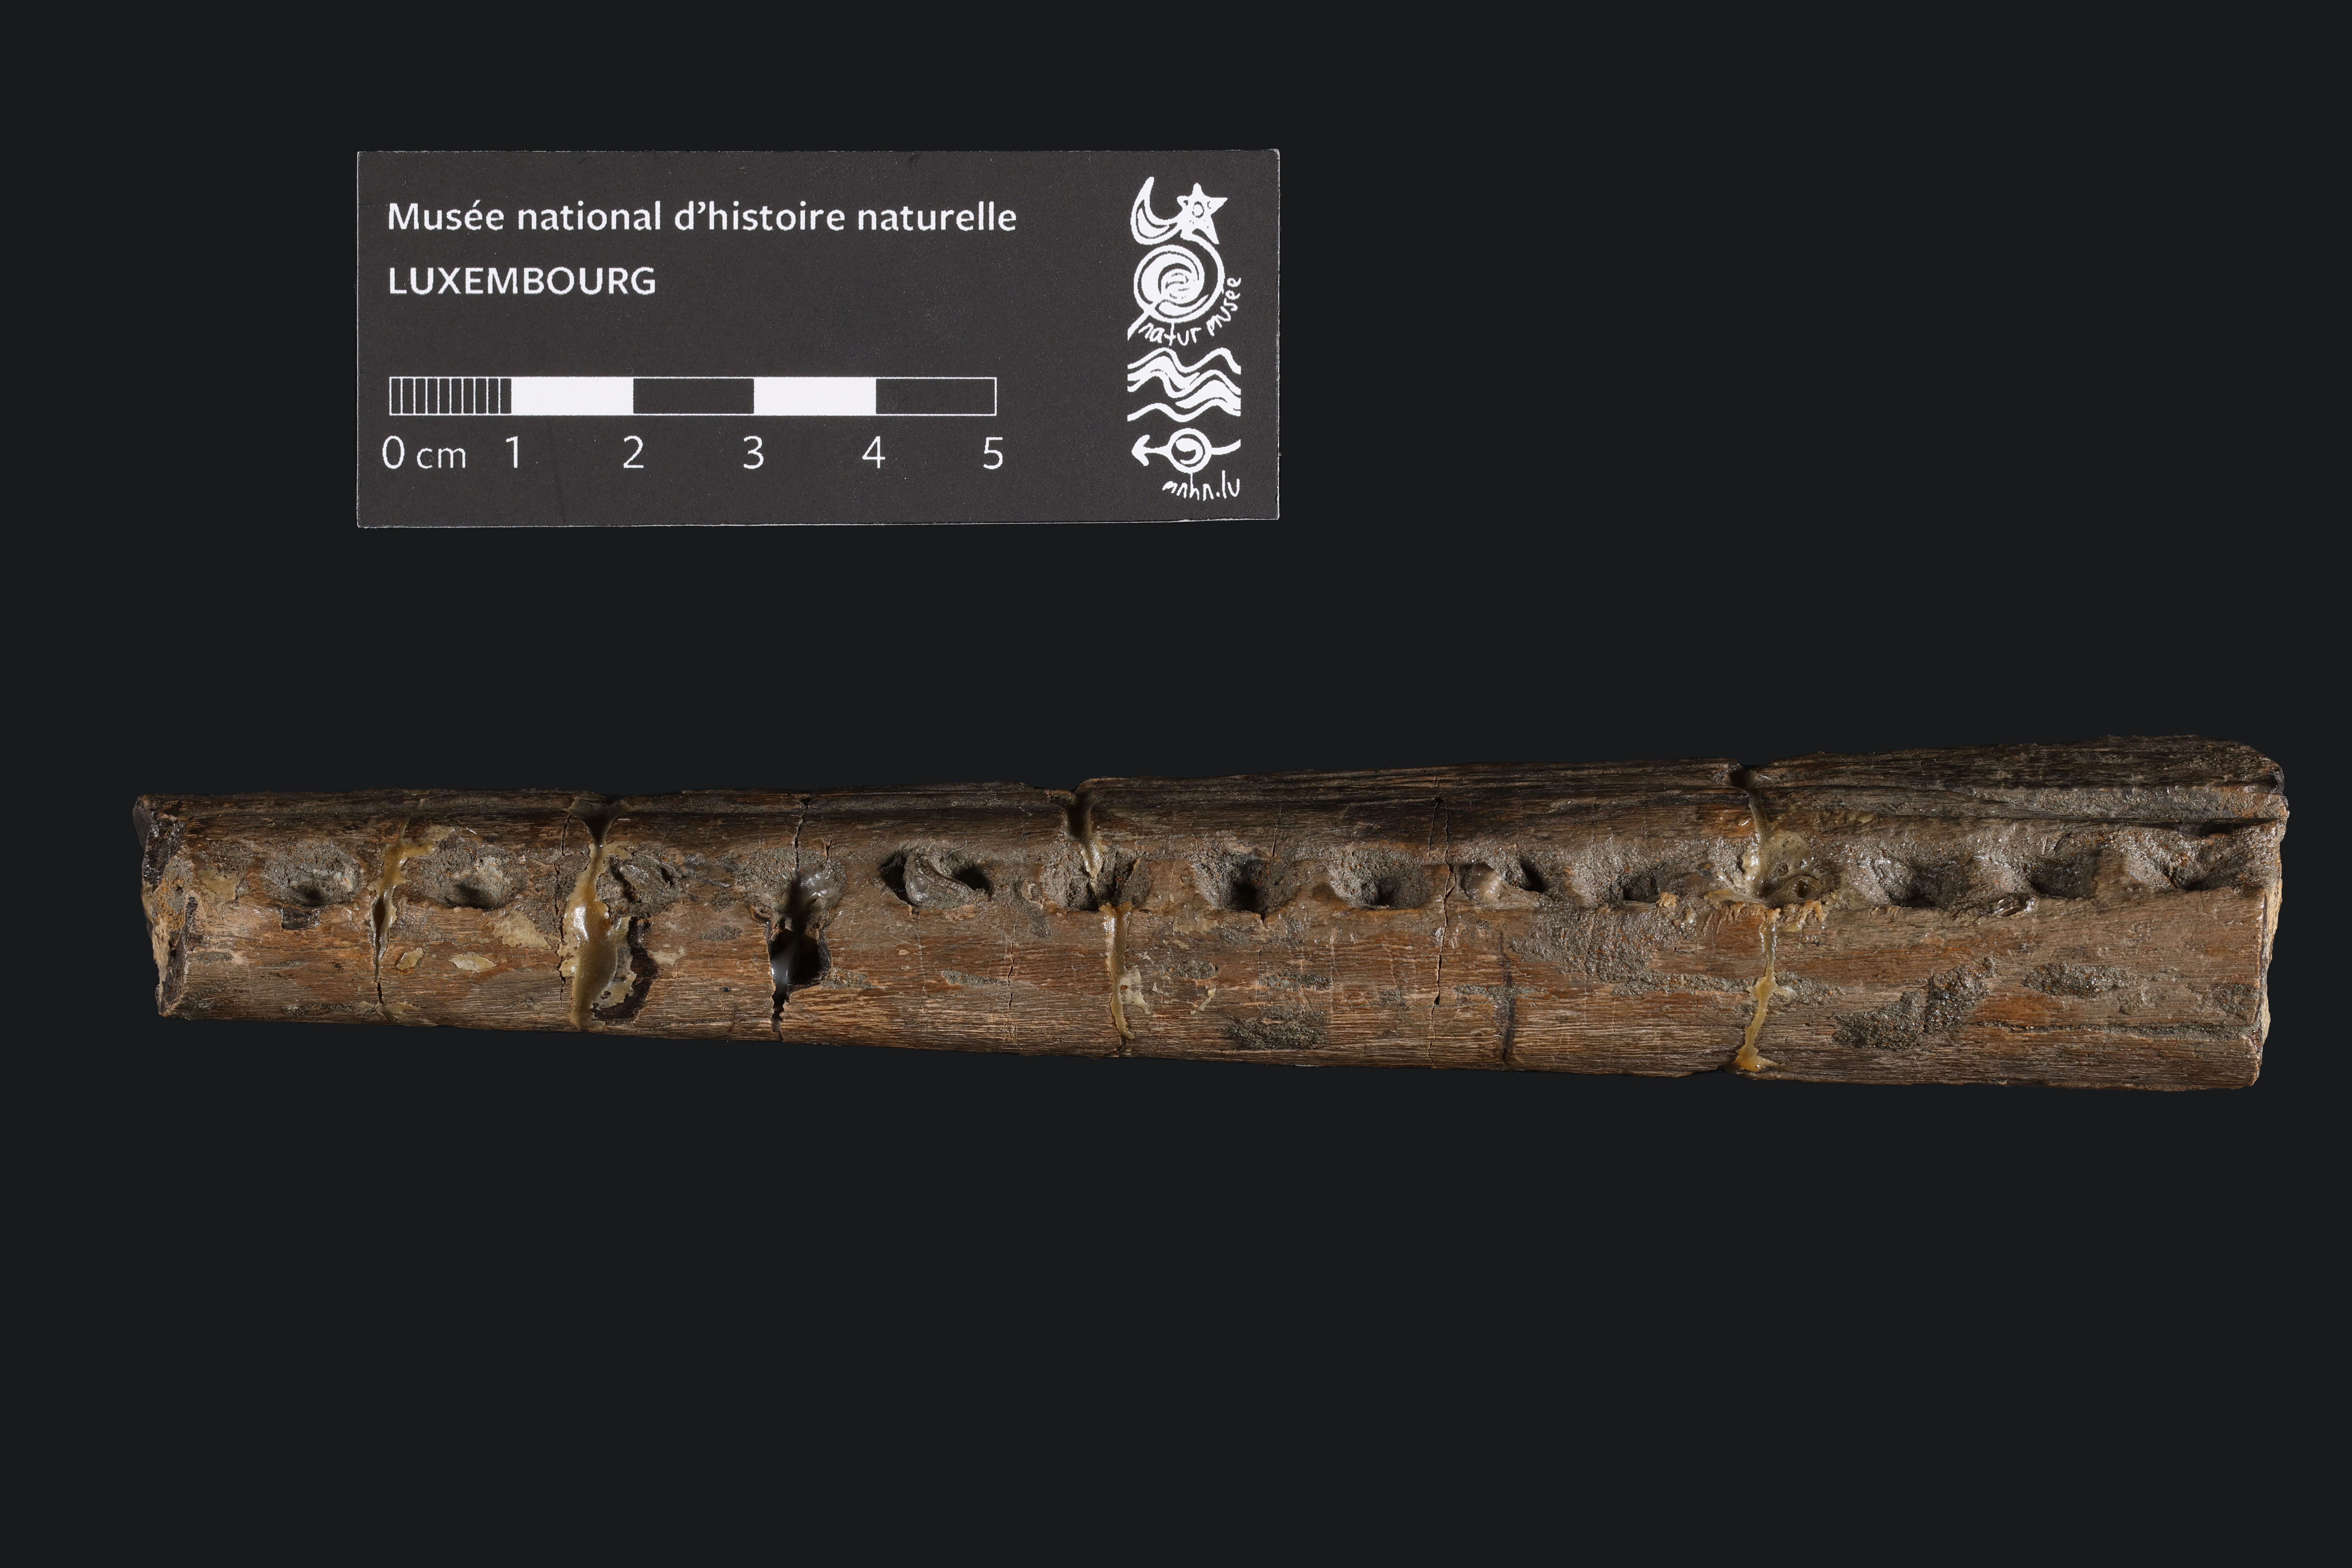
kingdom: Animalia
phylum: Chordata
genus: Thalattosuchia
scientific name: Thalattosuchia
